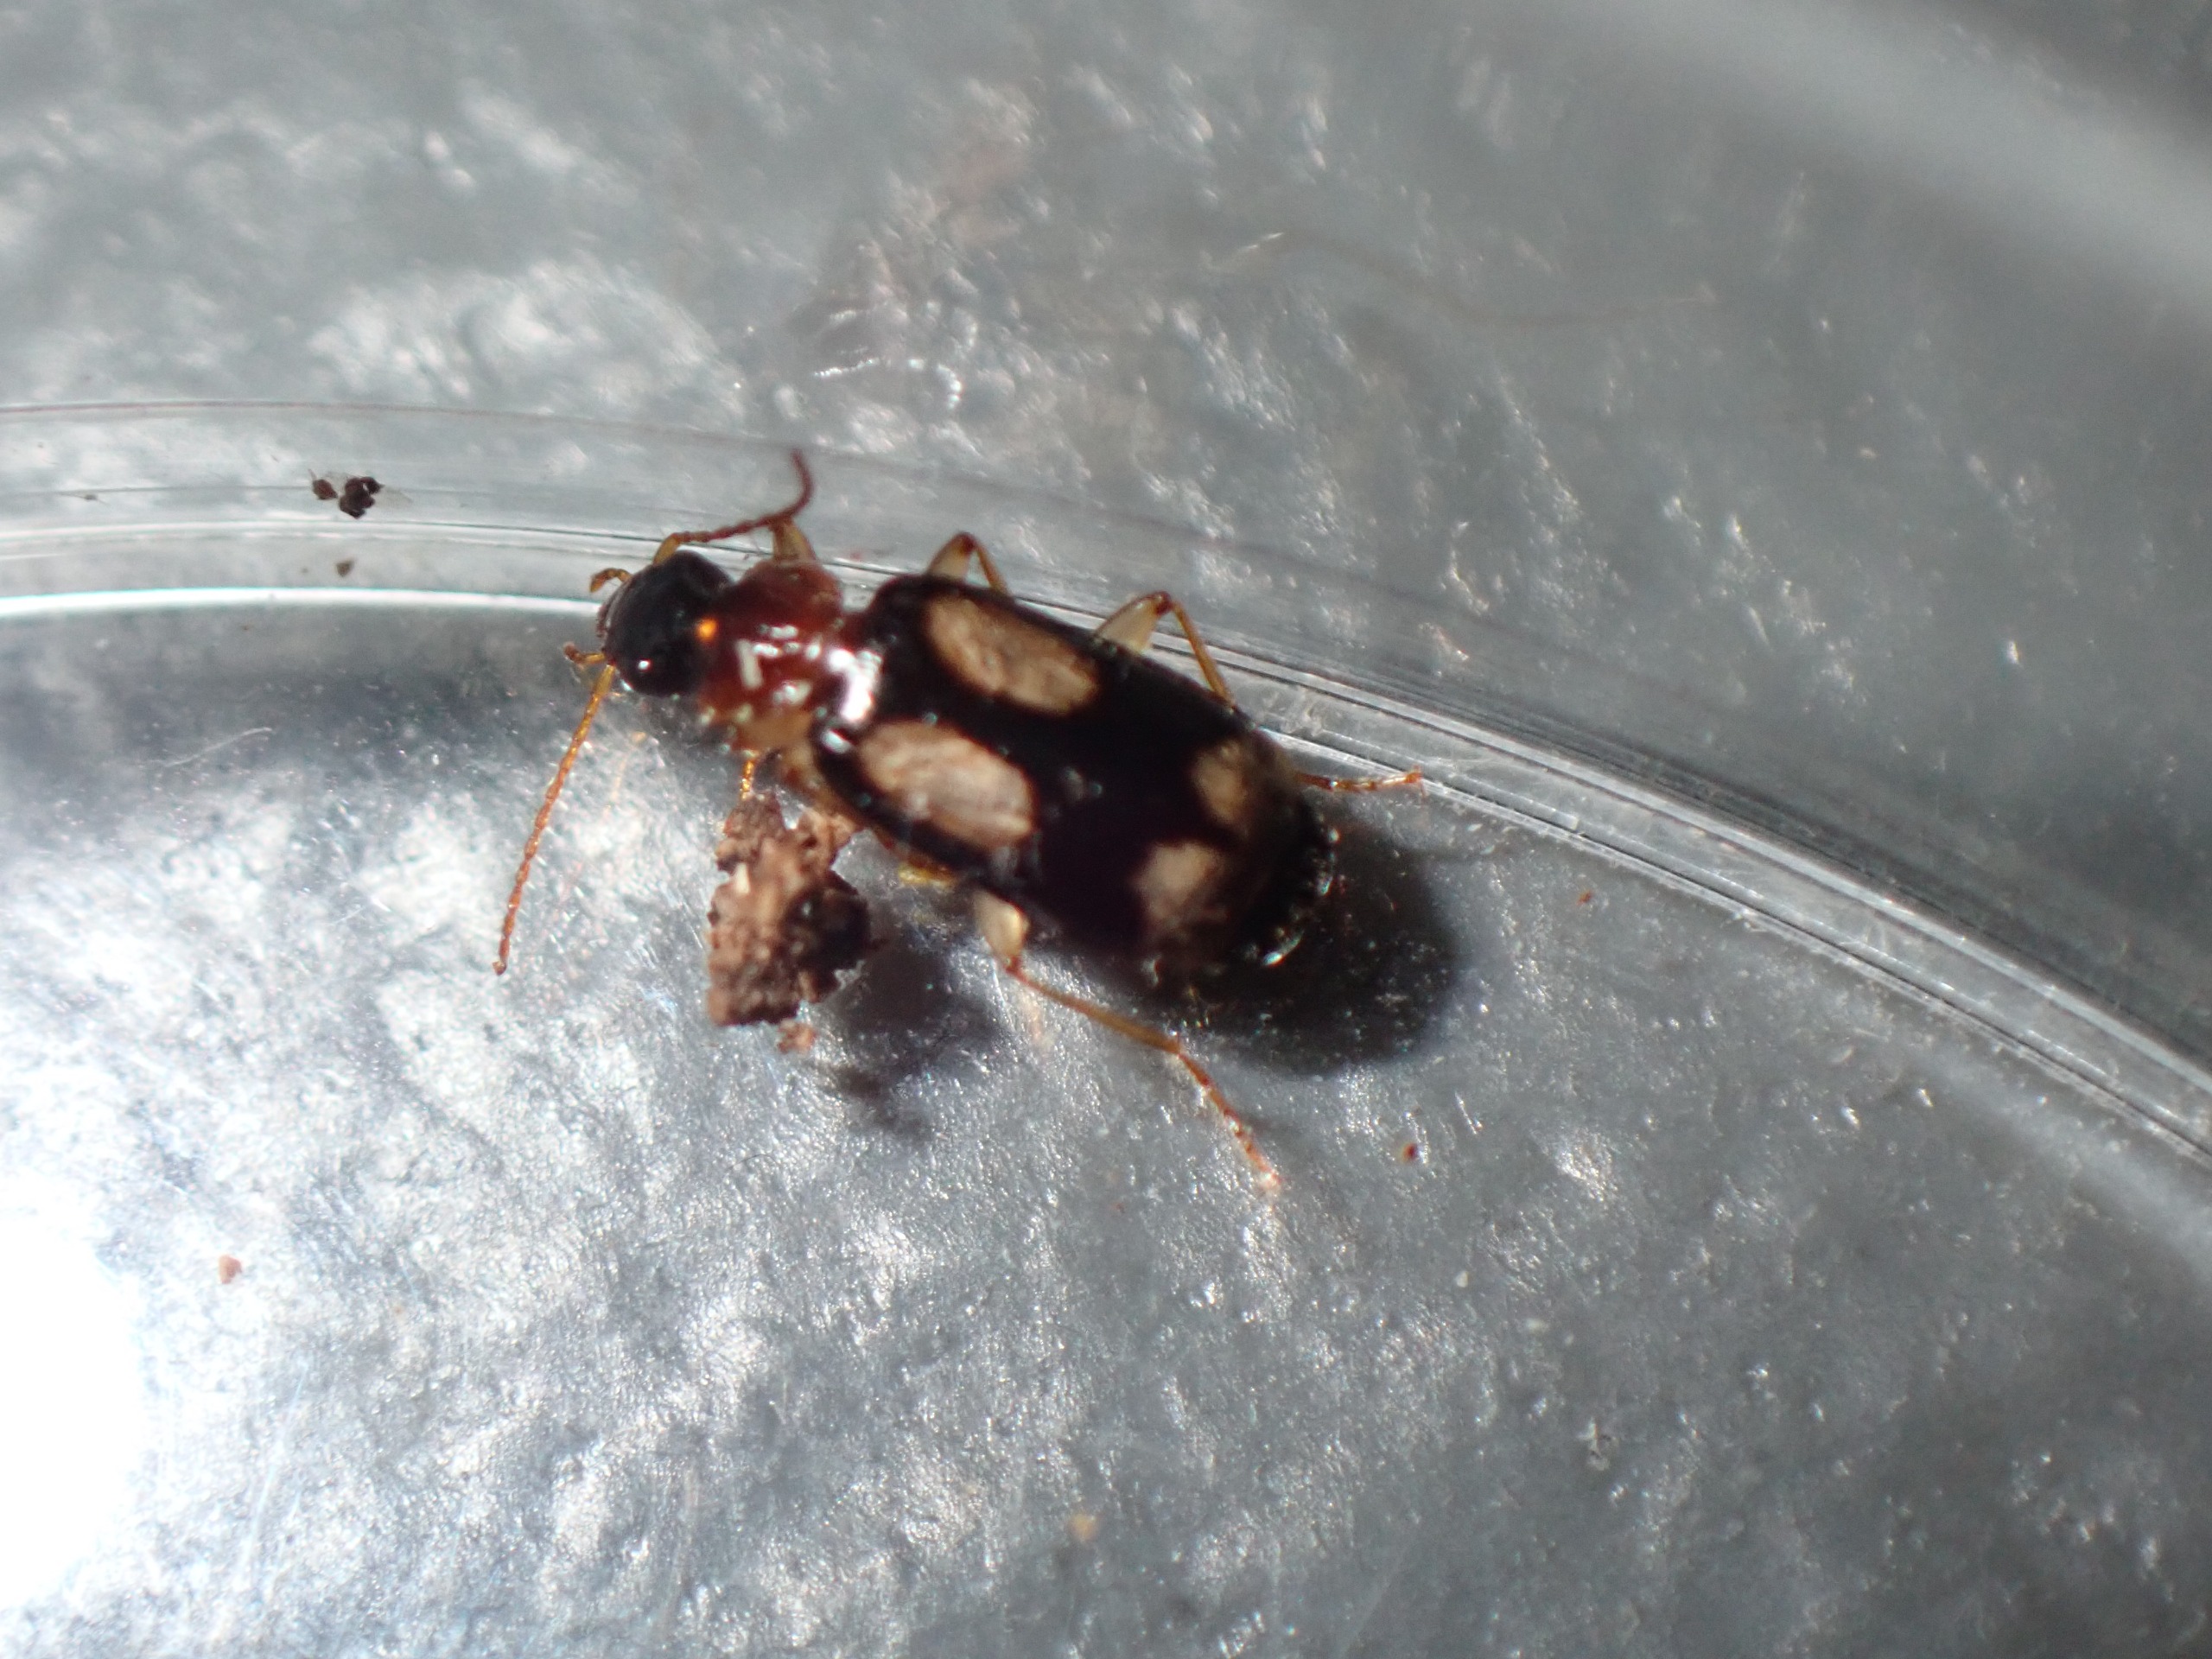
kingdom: Animalia
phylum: Arthropoda
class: Insecta
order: Coleoptera
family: Carabidae
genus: Dromius
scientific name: Dromius quadrimaculatus
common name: Fireplettet barkløber
